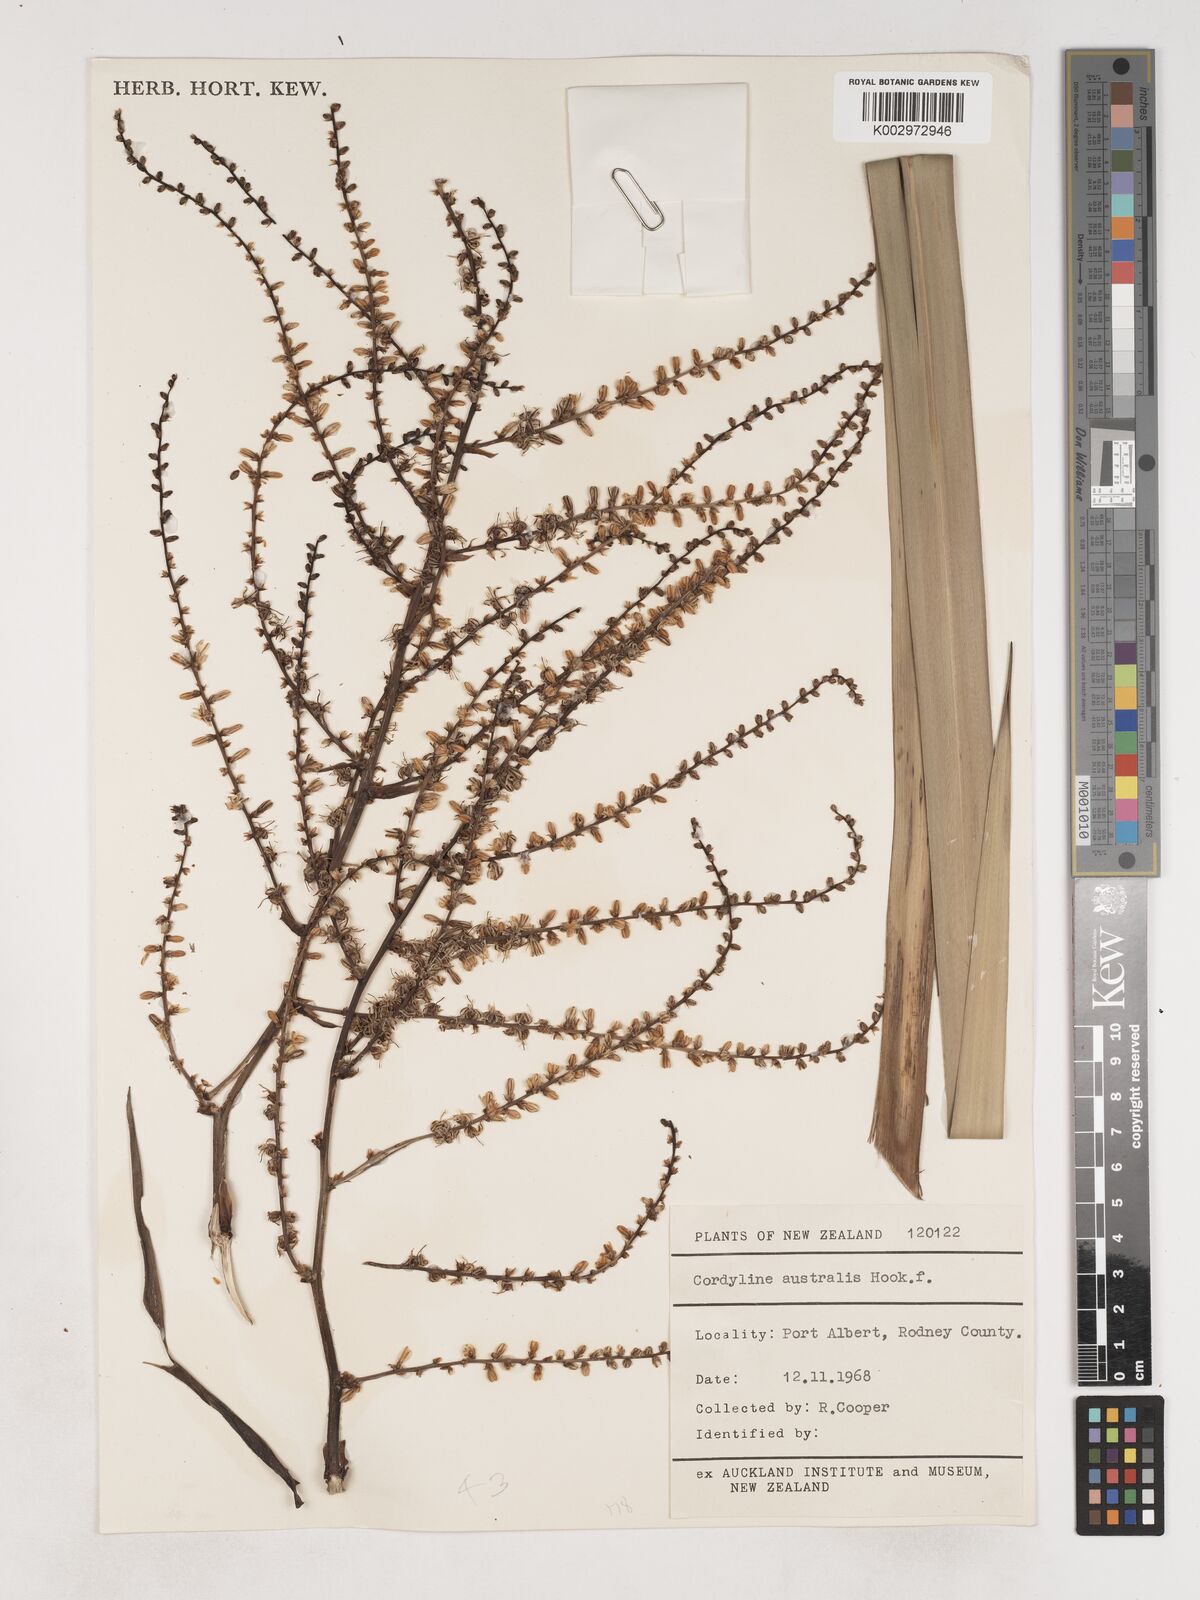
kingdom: Plantae
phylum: Tracheophyta
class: Liliopsida
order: Asparagales
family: Asparagaceae
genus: Cordyline
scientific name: Cordyline
